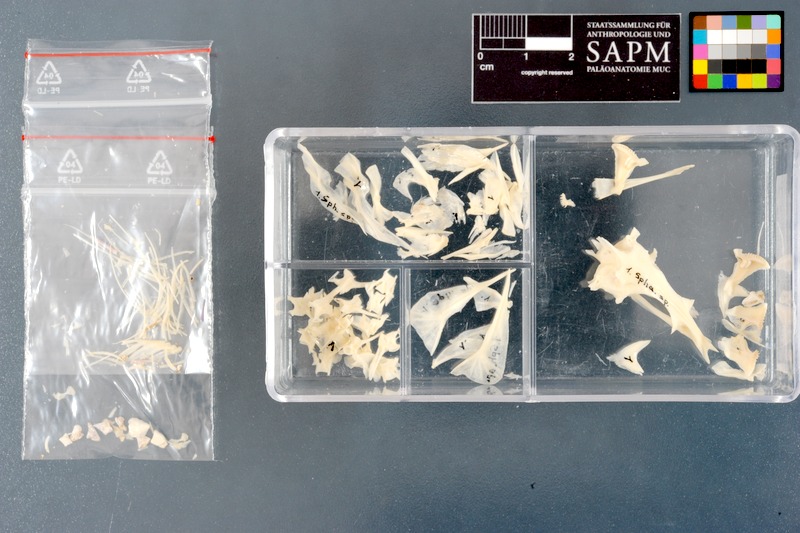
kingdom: Animalia
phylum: Chordata
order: Tetraodontiformes
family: Tetraodontidae
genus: Sphoeroides
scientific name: Sphoeroides spengleri
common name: Bandtail puffer
